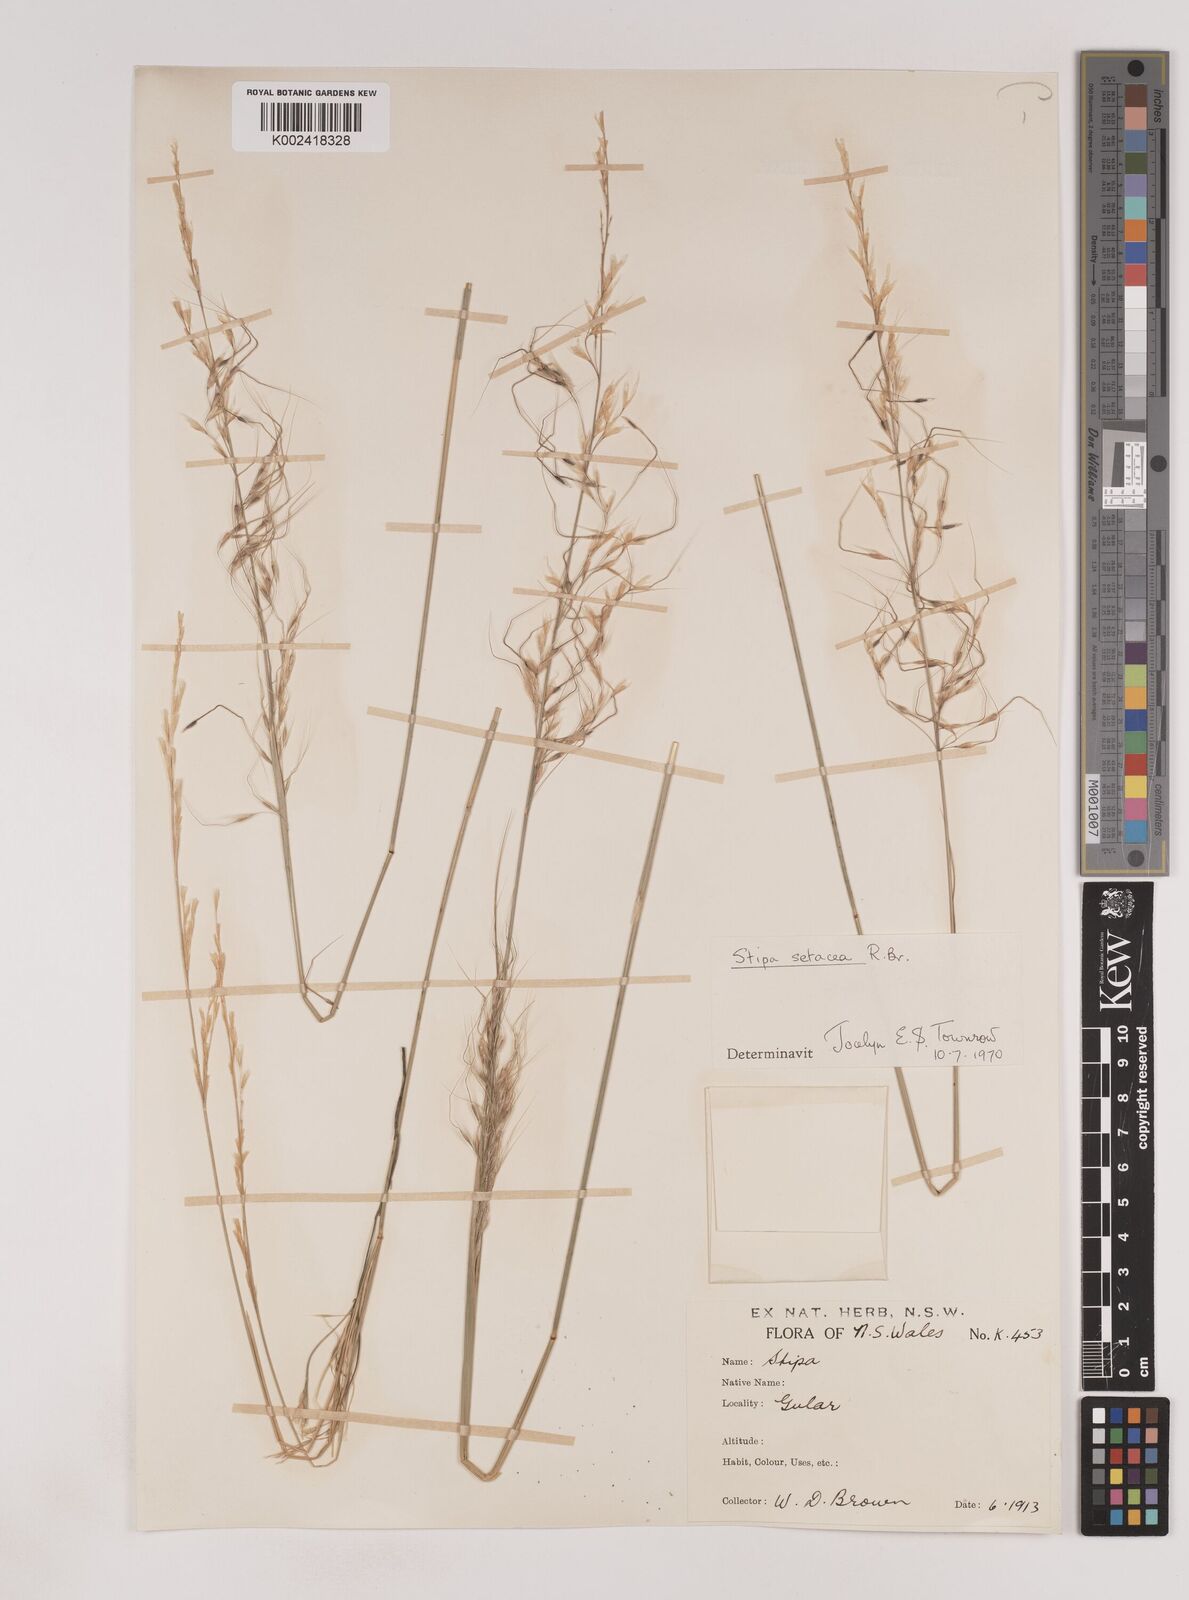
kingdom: Plantae
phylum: Tracheophyta
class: Liliopsida
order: Poales
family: Poaceae
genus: Piptochaetium
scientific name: Piptochaetium
